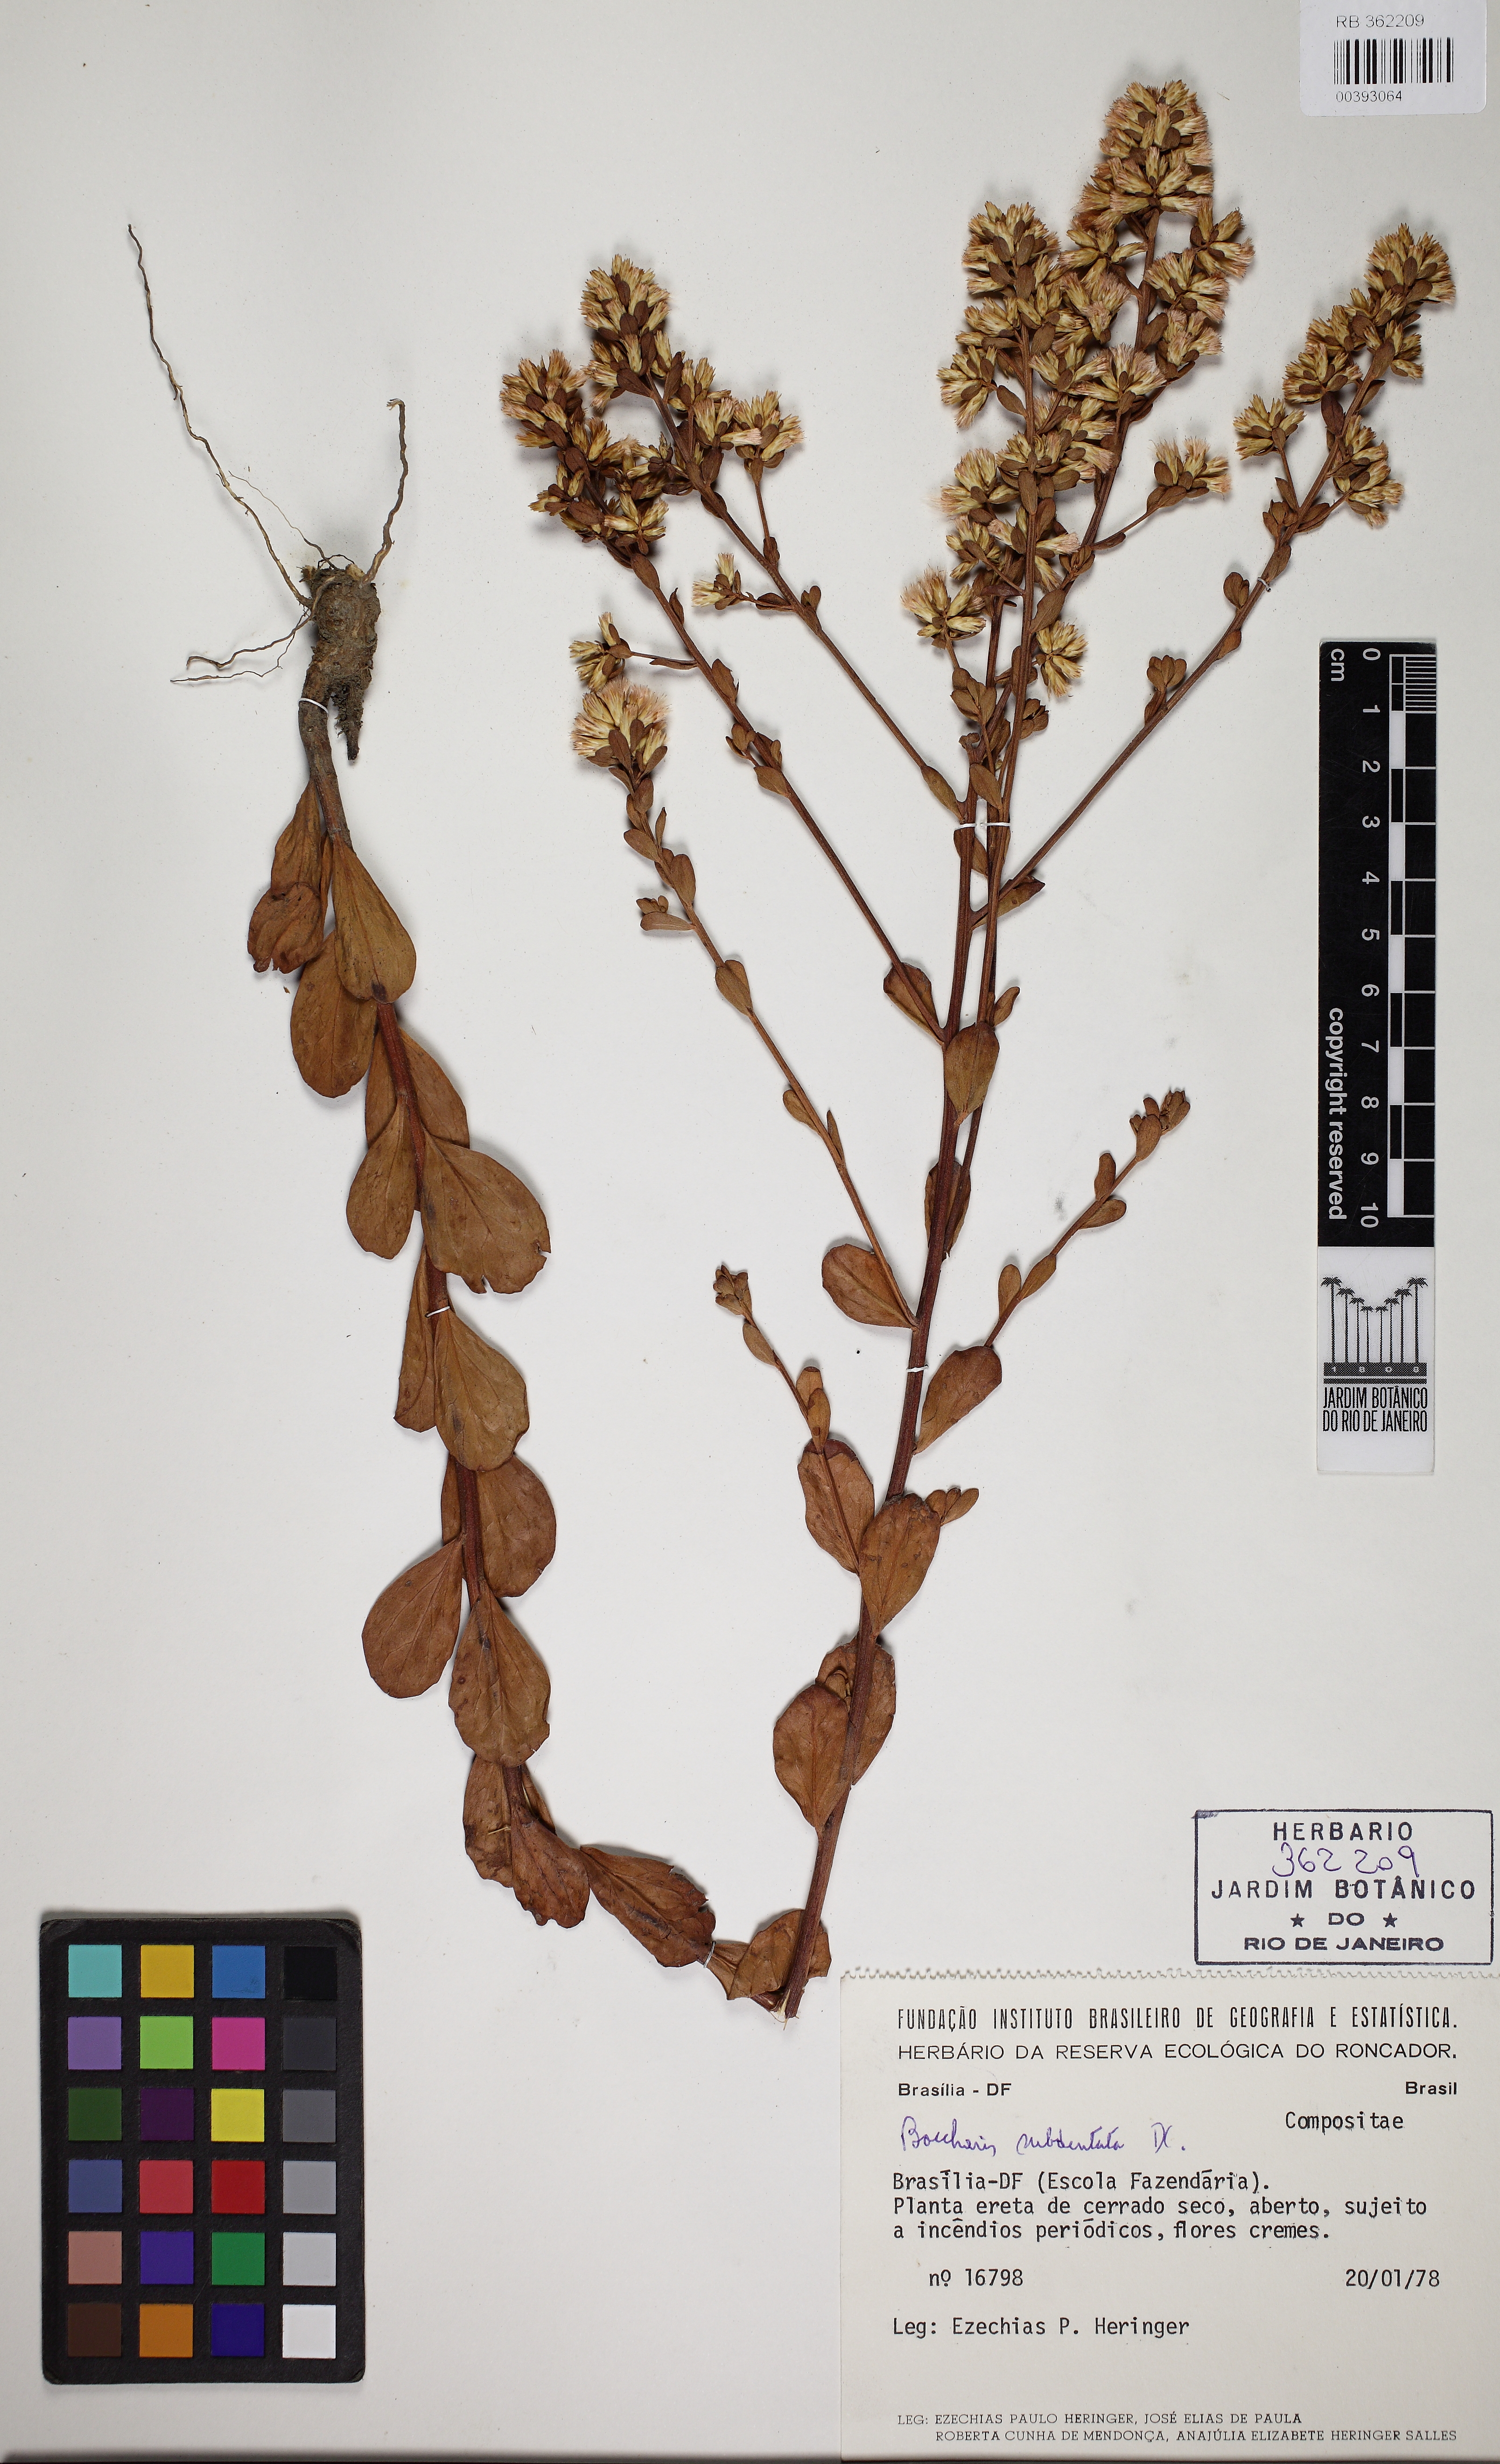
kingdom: Plantae
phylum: Tracheophyta
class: Magnoliopsida
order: Asterales
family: Asteraceae
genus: Baccharis
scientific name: Baccharis subdentata
